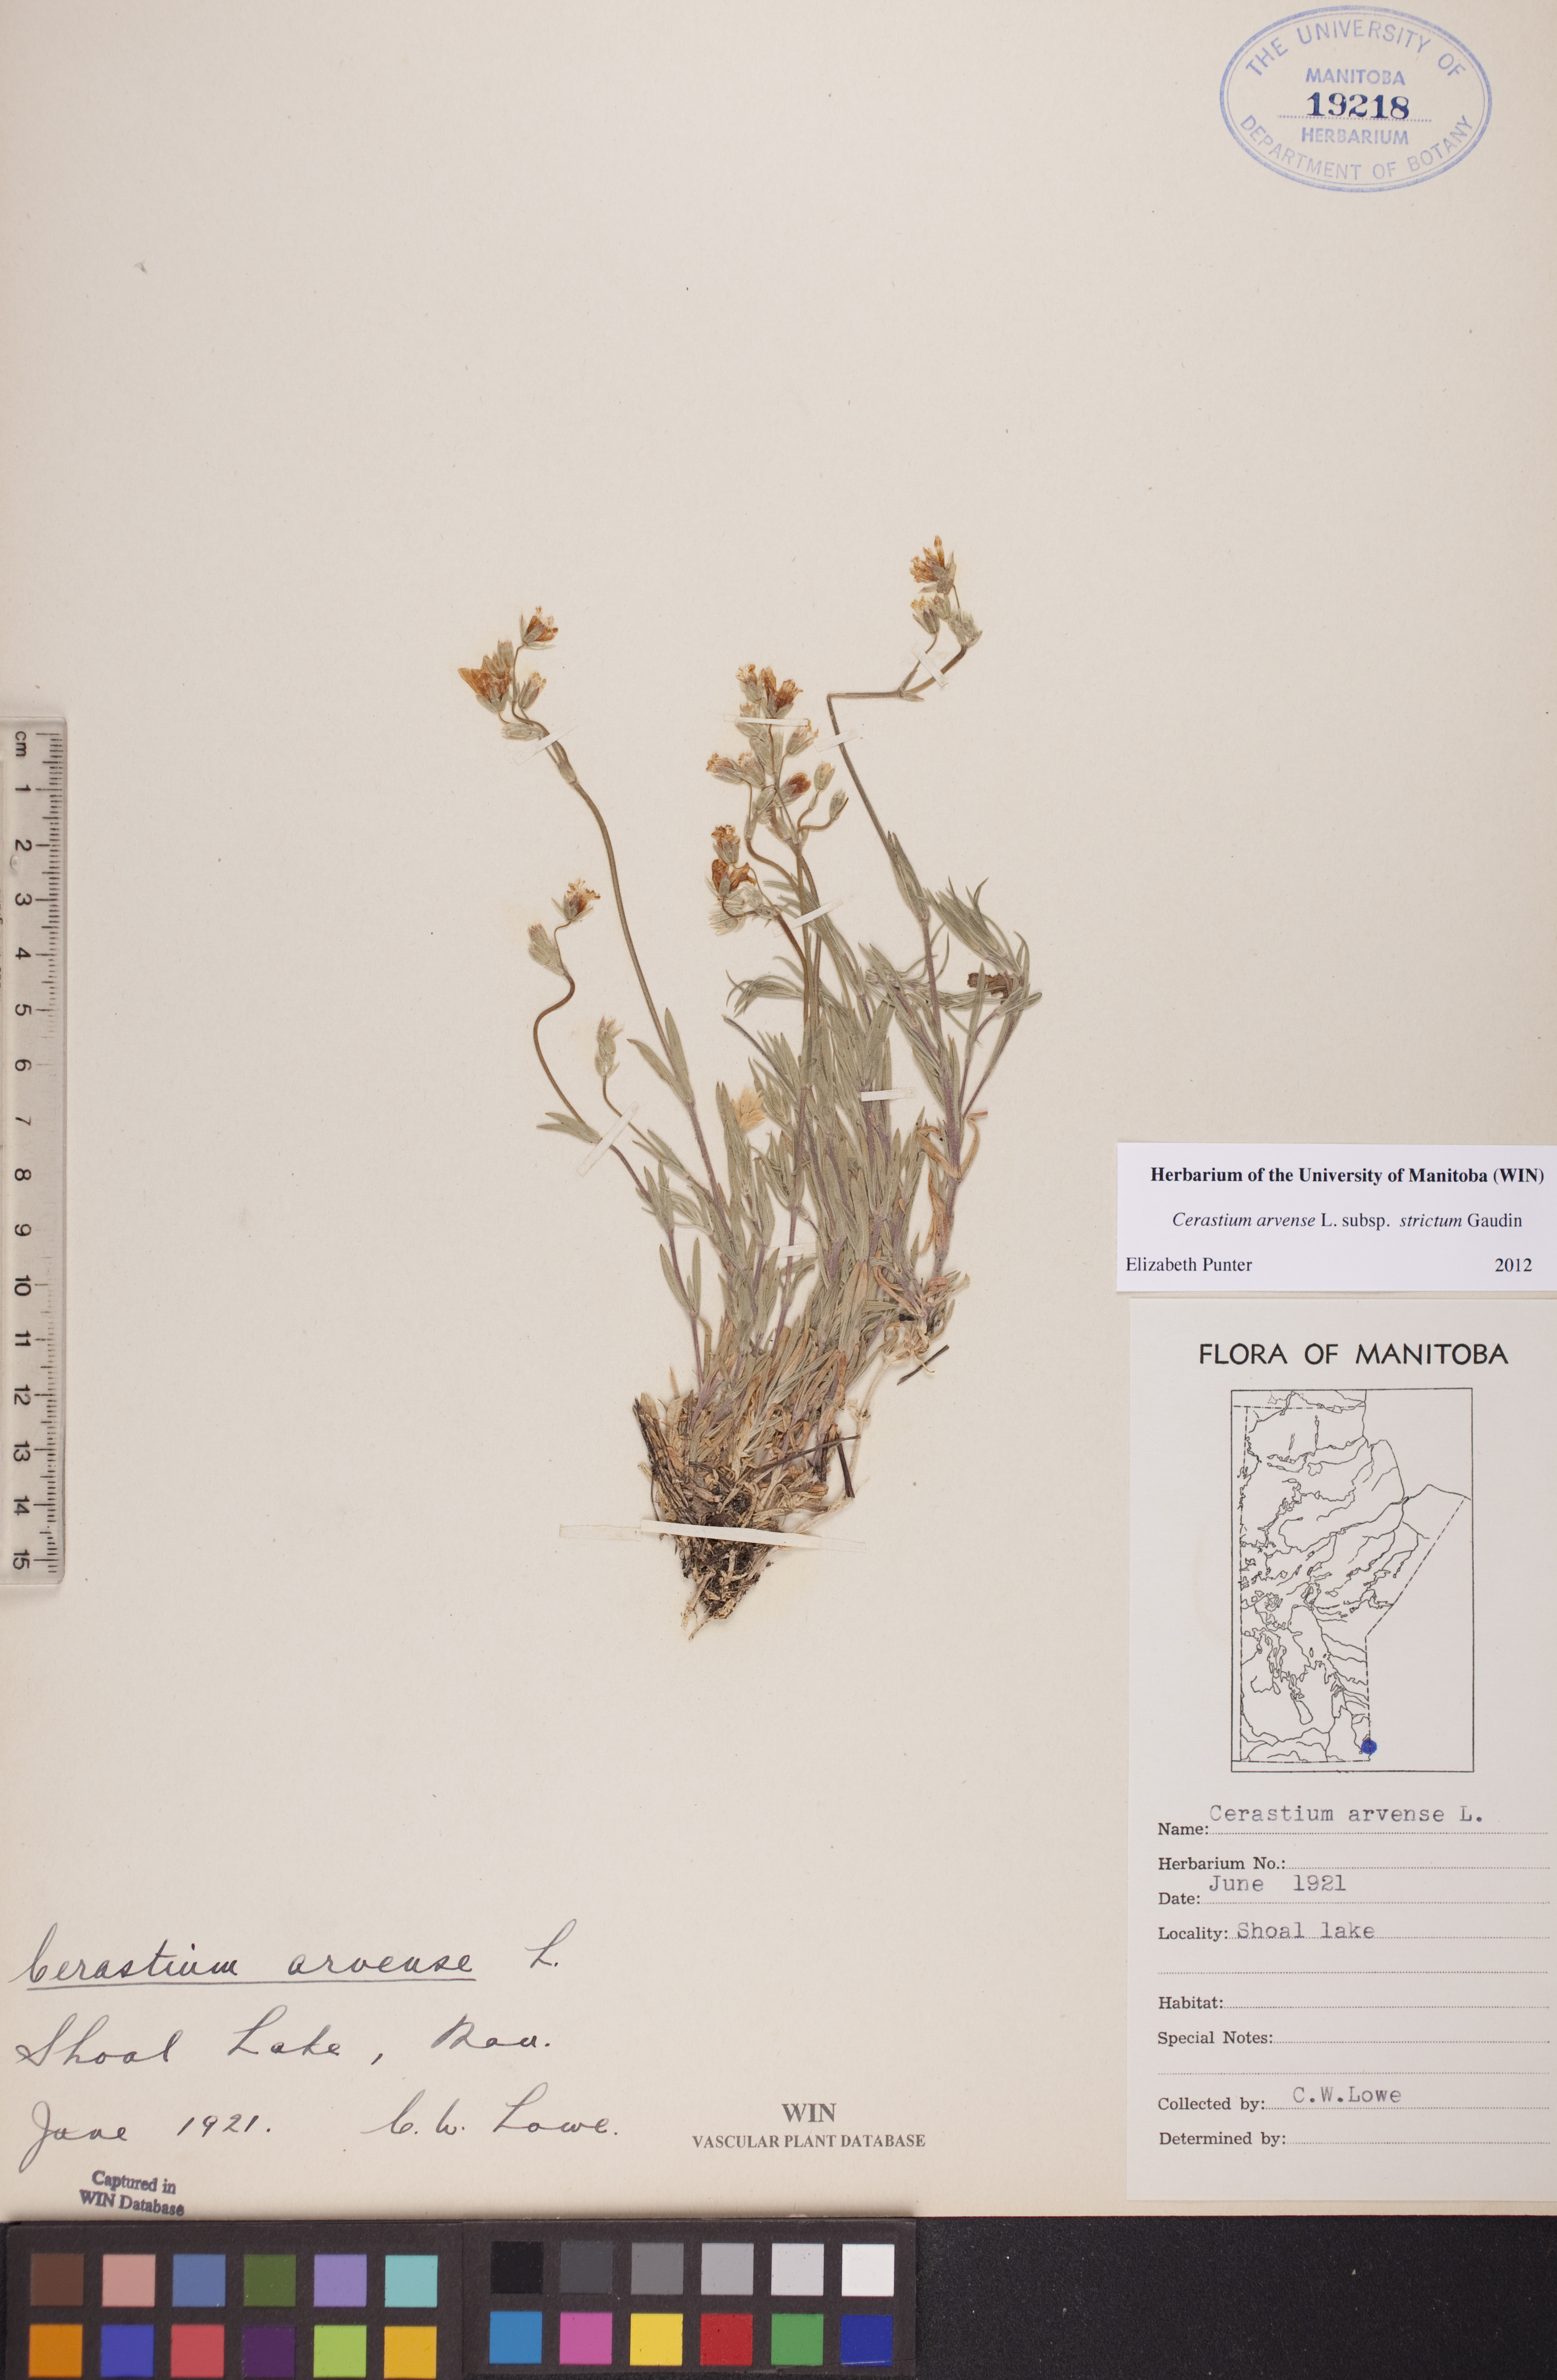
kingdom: Plantae
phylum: Tracheophyta
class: Magnoliopsida
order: Caryophyllales
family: Caryophyllaceae
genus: Cerastium
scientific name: Cerastium elongatum
